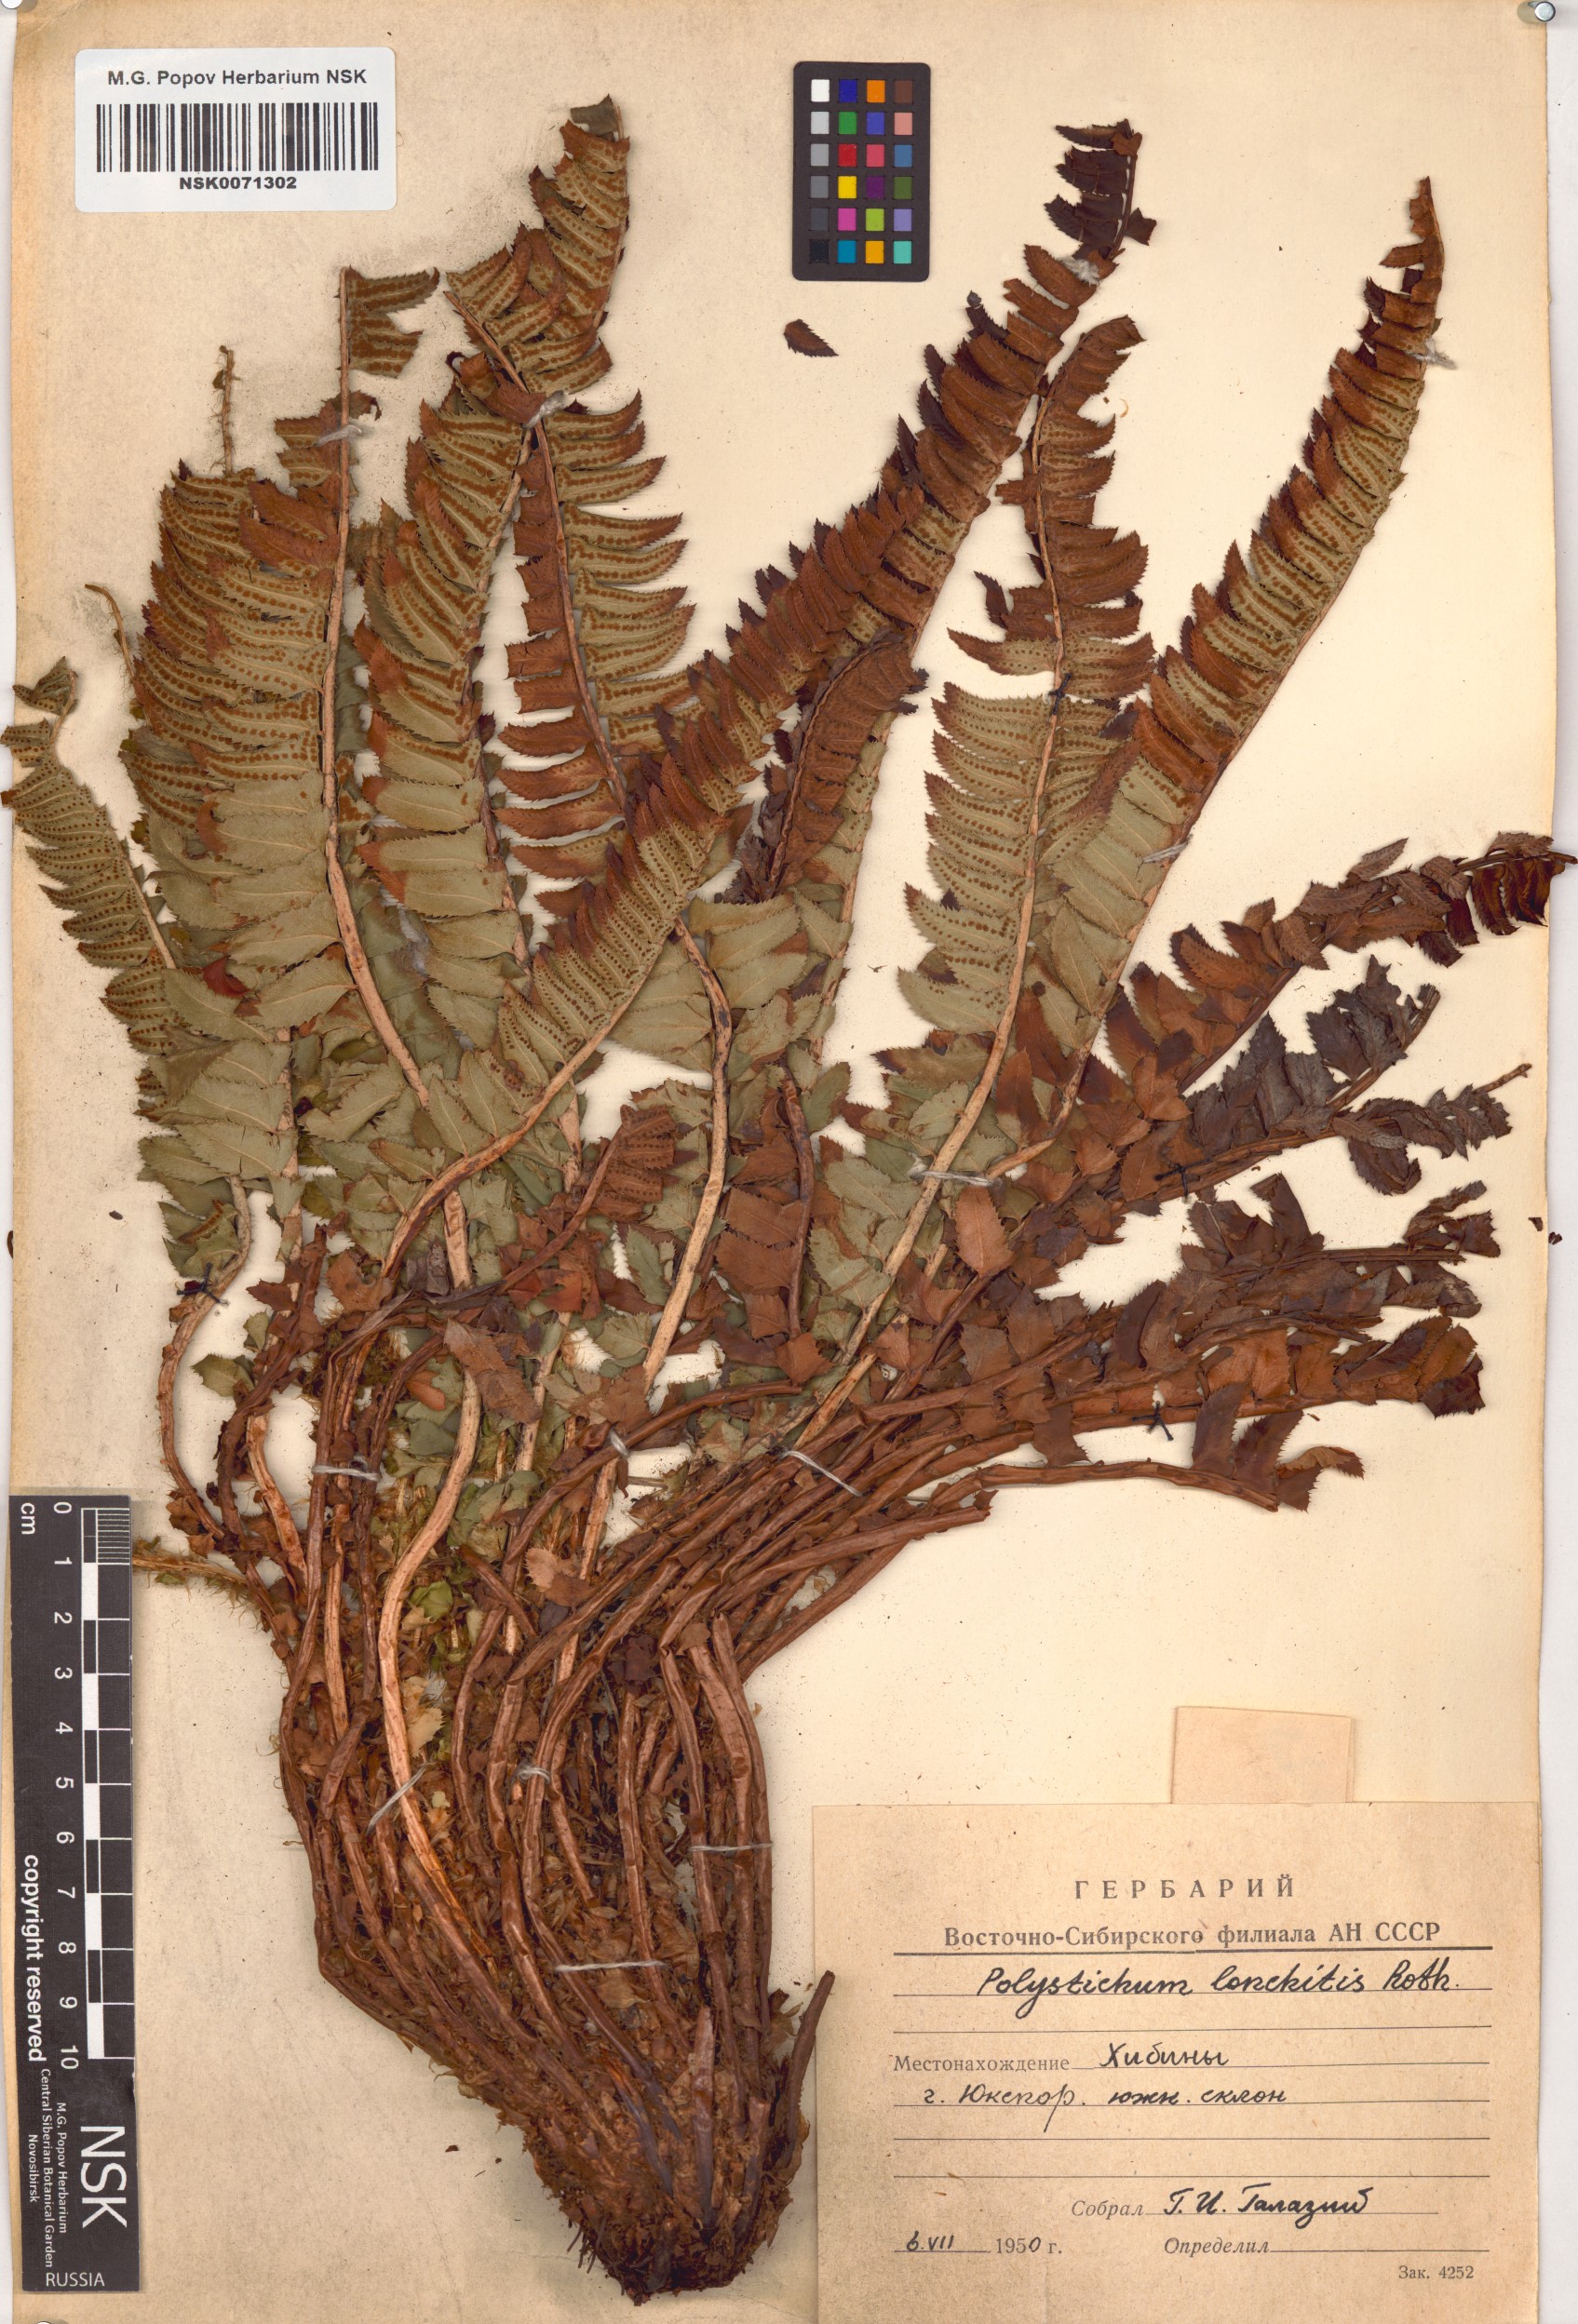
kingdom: Plantae
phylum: Tracheophyta
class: Polypodiopsida
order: Polypodiales
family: Dryopteridaceae
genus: Polystichum
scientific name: Polystichum lonchitis
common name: Holly fern
